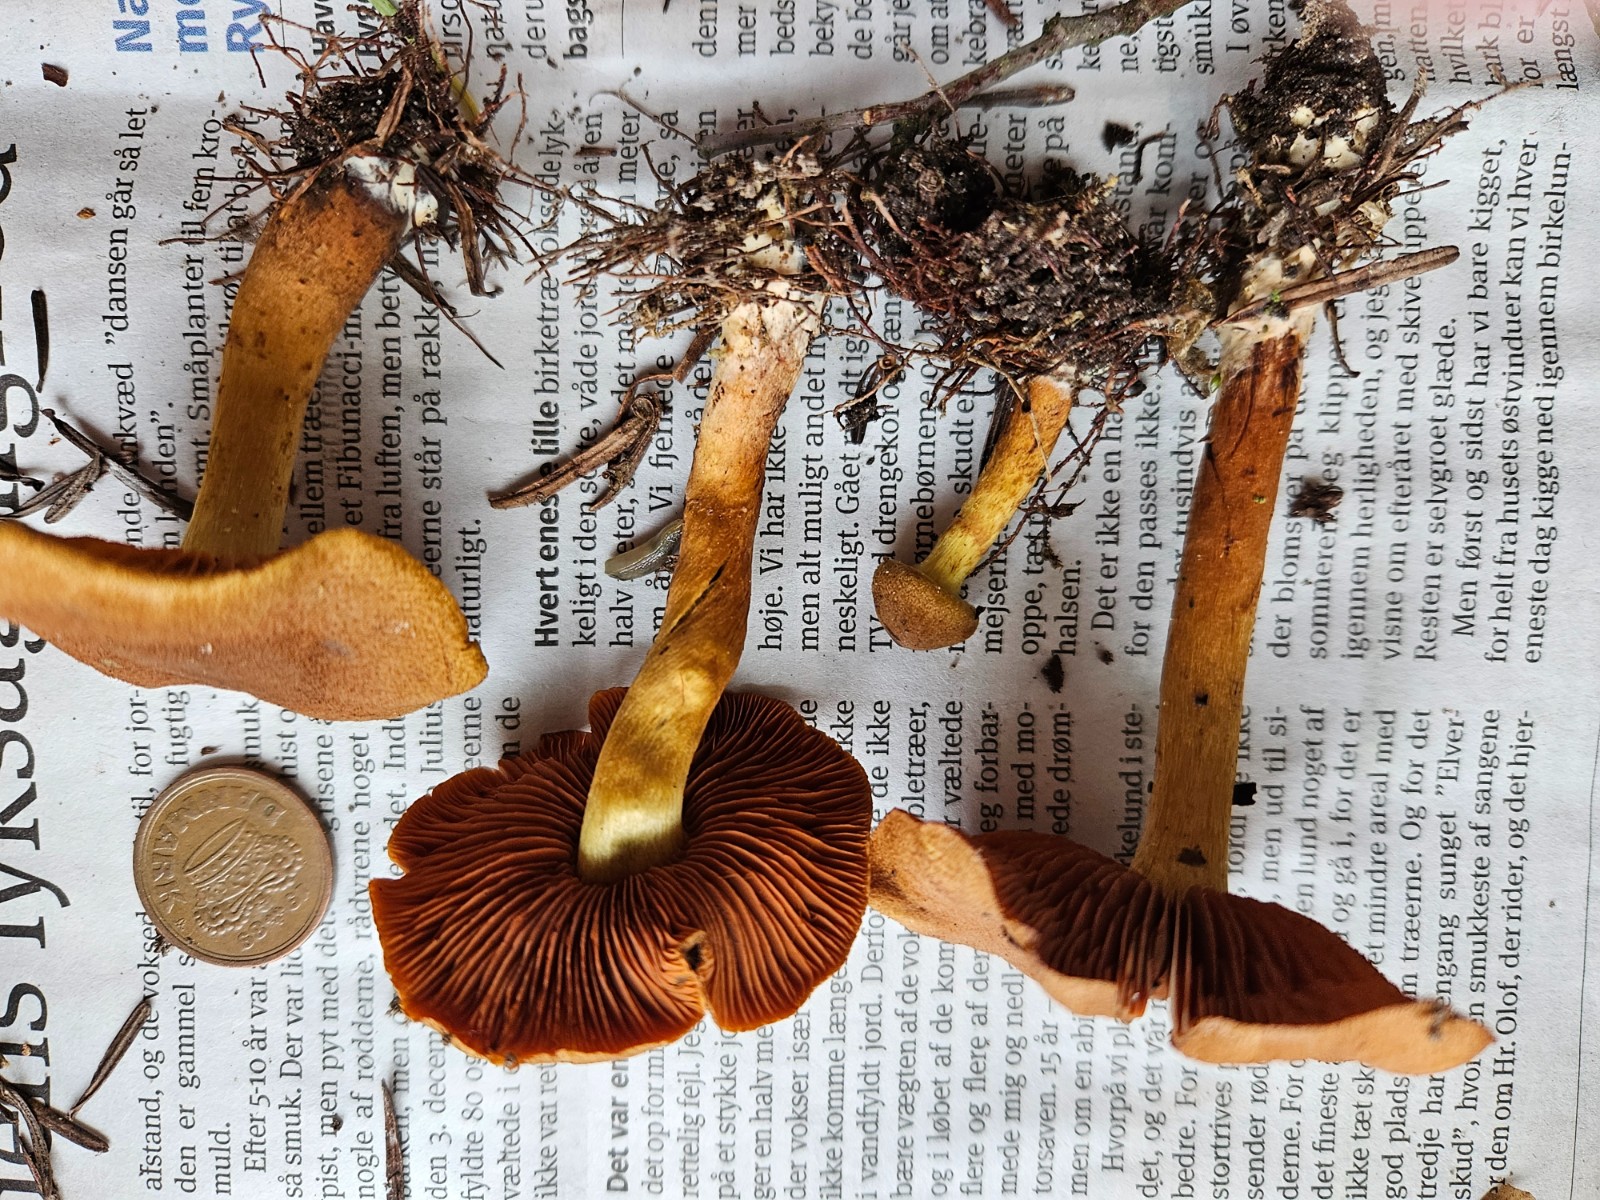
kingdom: Fungi
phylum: Basidiomycota
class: Agaricomycetes
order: Agaricales
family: Cortinariaceae
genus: Cortinarius
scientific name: Cortinarius
